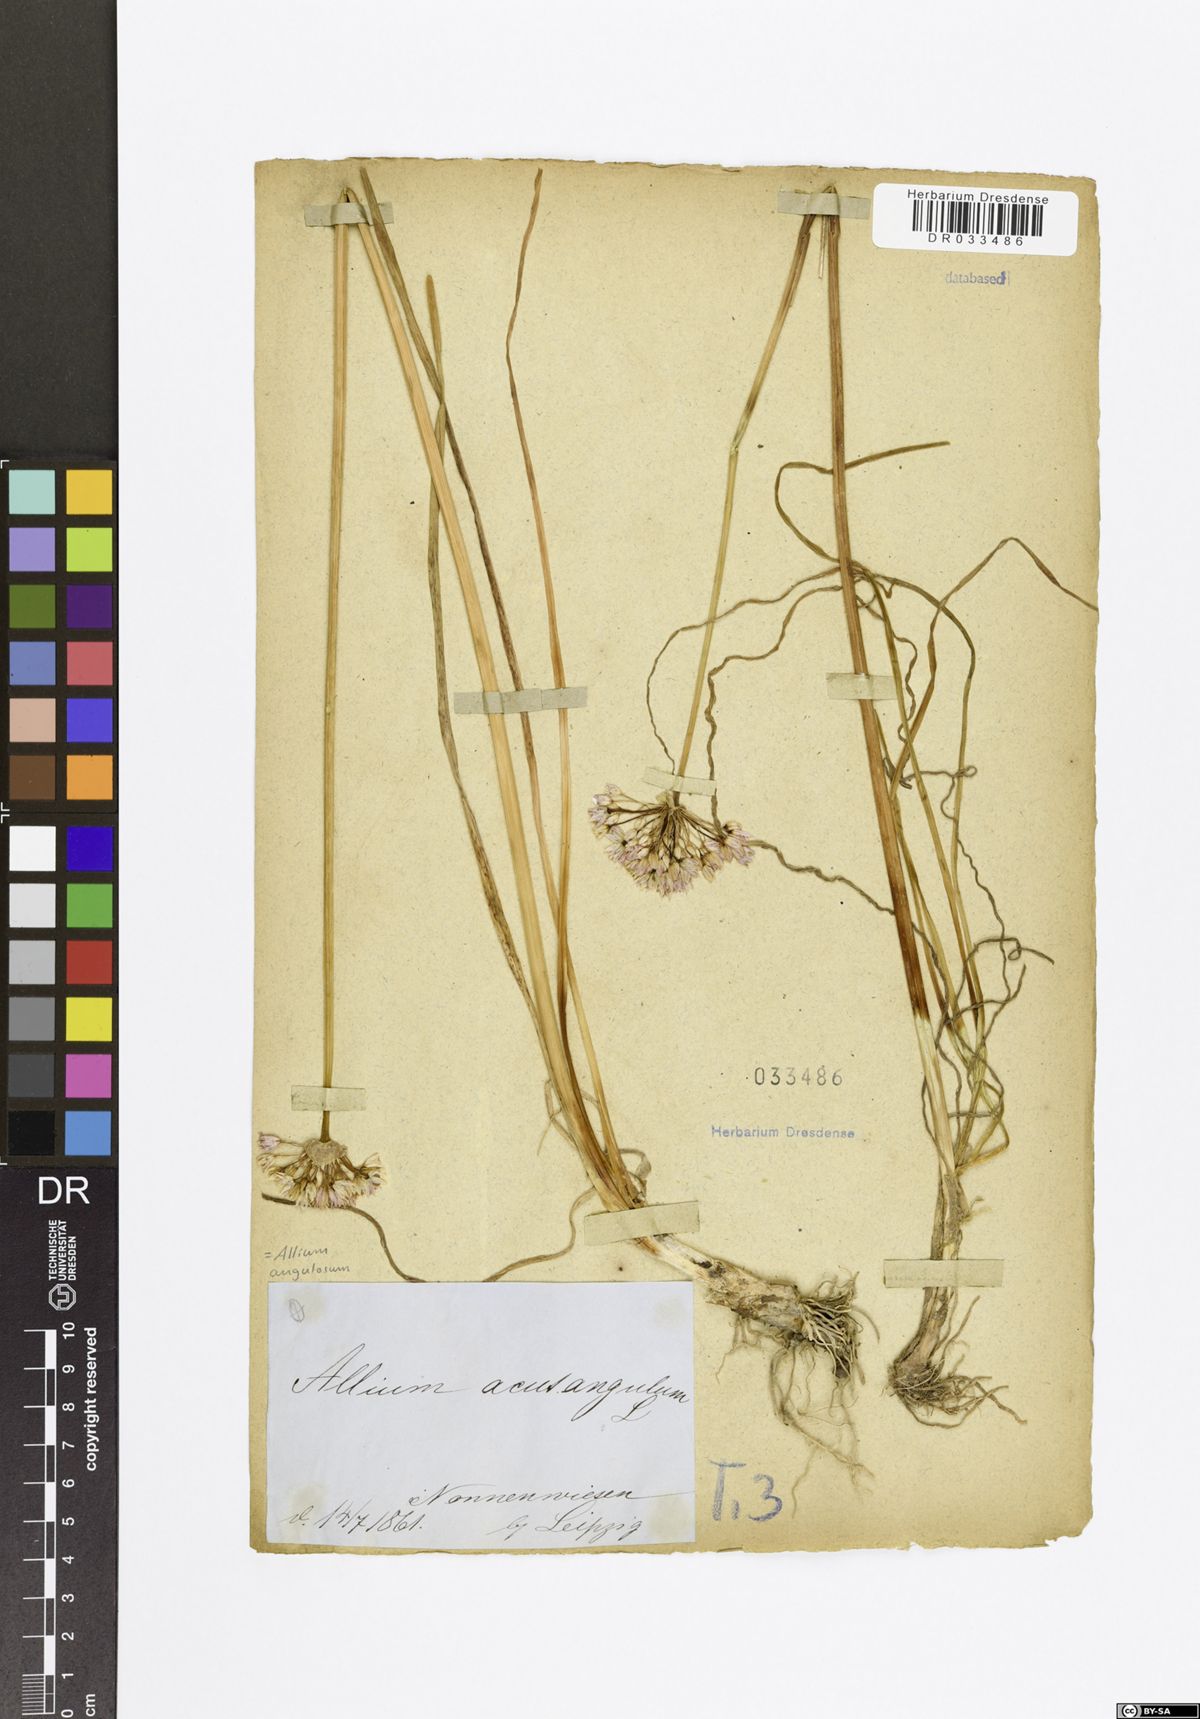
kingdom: Plantae
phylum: Tracheophyta
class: Liliopsida
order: Asparagales
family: Amaryllidaceae
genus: Allium
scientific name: Allium angulosum
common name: Mouse garlic
